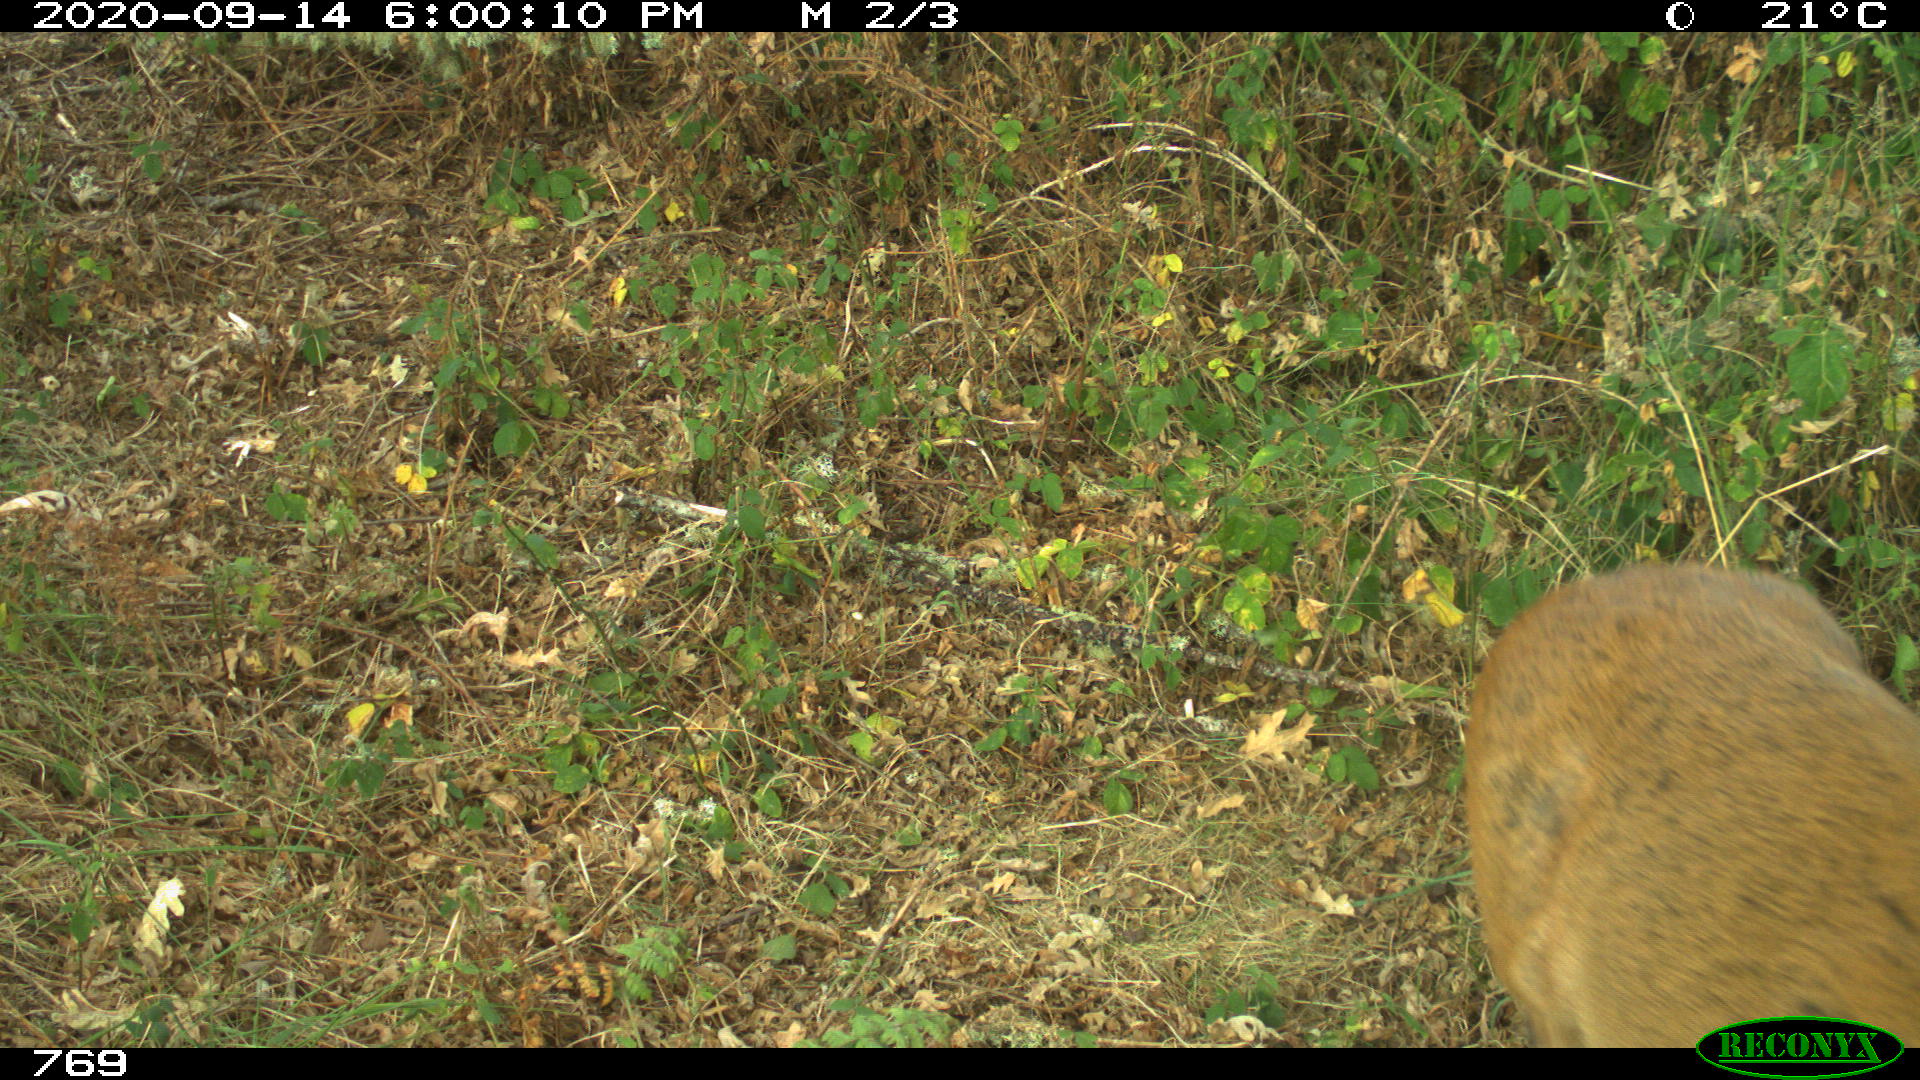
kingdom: Animalia
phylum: Chordata
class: Mammalia
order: Artiodactyla
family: Cervidae
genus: Capreolus
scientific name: Capreolus capreolus
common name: Western roe deer
